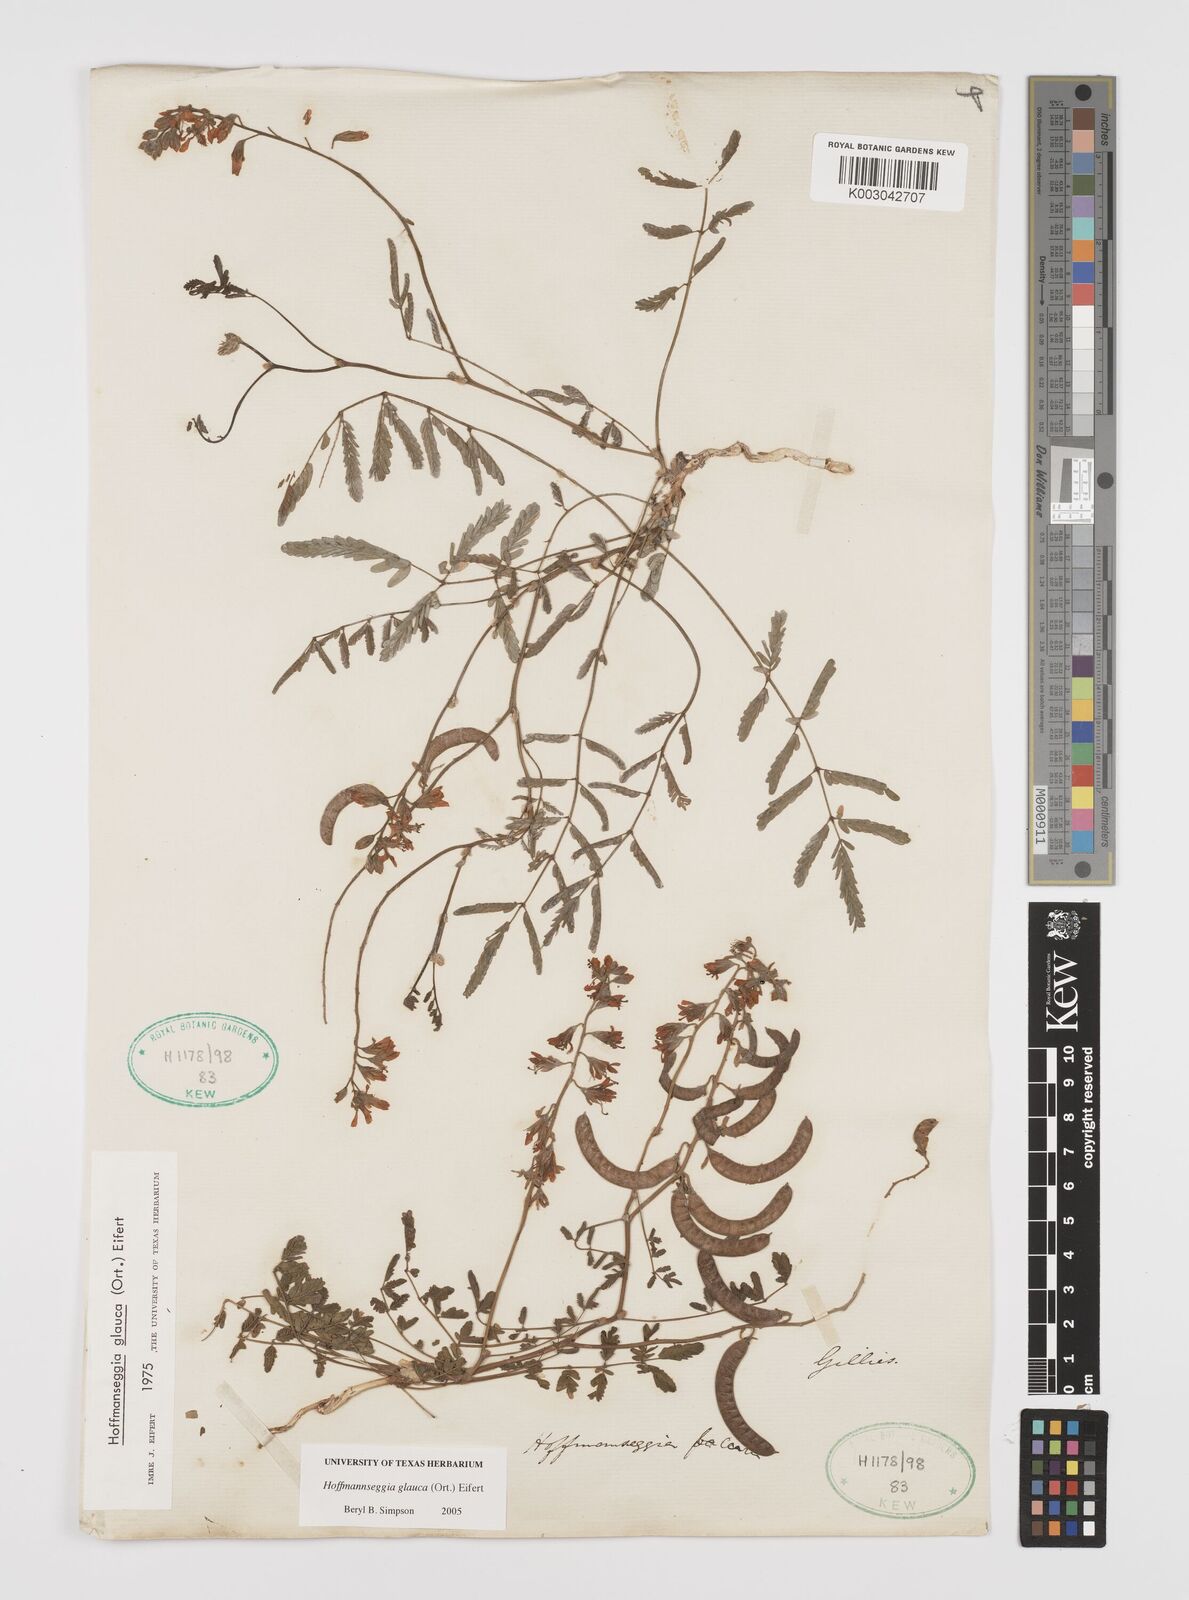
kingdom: Plantae
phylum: Tracheophyta
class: Magnoliopsida
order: Fabales
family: Fabaceae
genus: Hoffmannseggia
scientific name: Hoffmannseggia glauca
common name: Pignut
